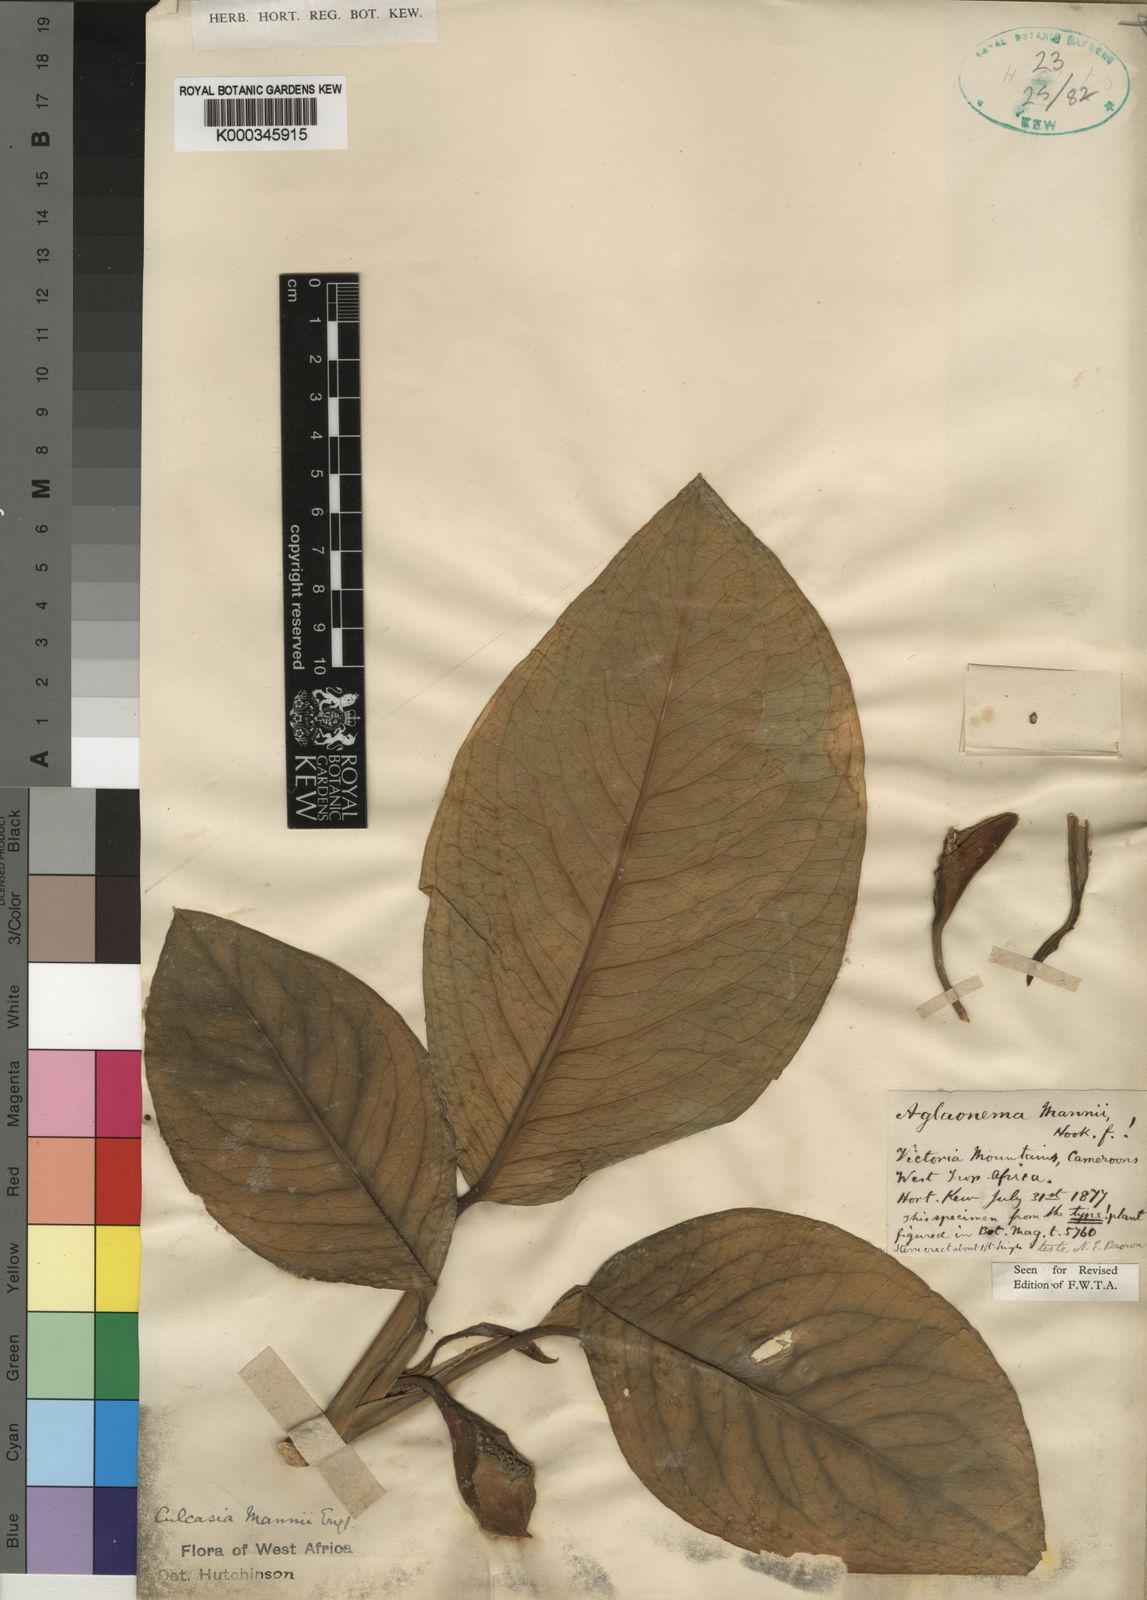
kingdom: Plantae
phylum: Tracheophyta
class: Liliopsida
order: Alismatales
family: Araceae
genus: Culcasia
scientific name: Culcasia mannii
